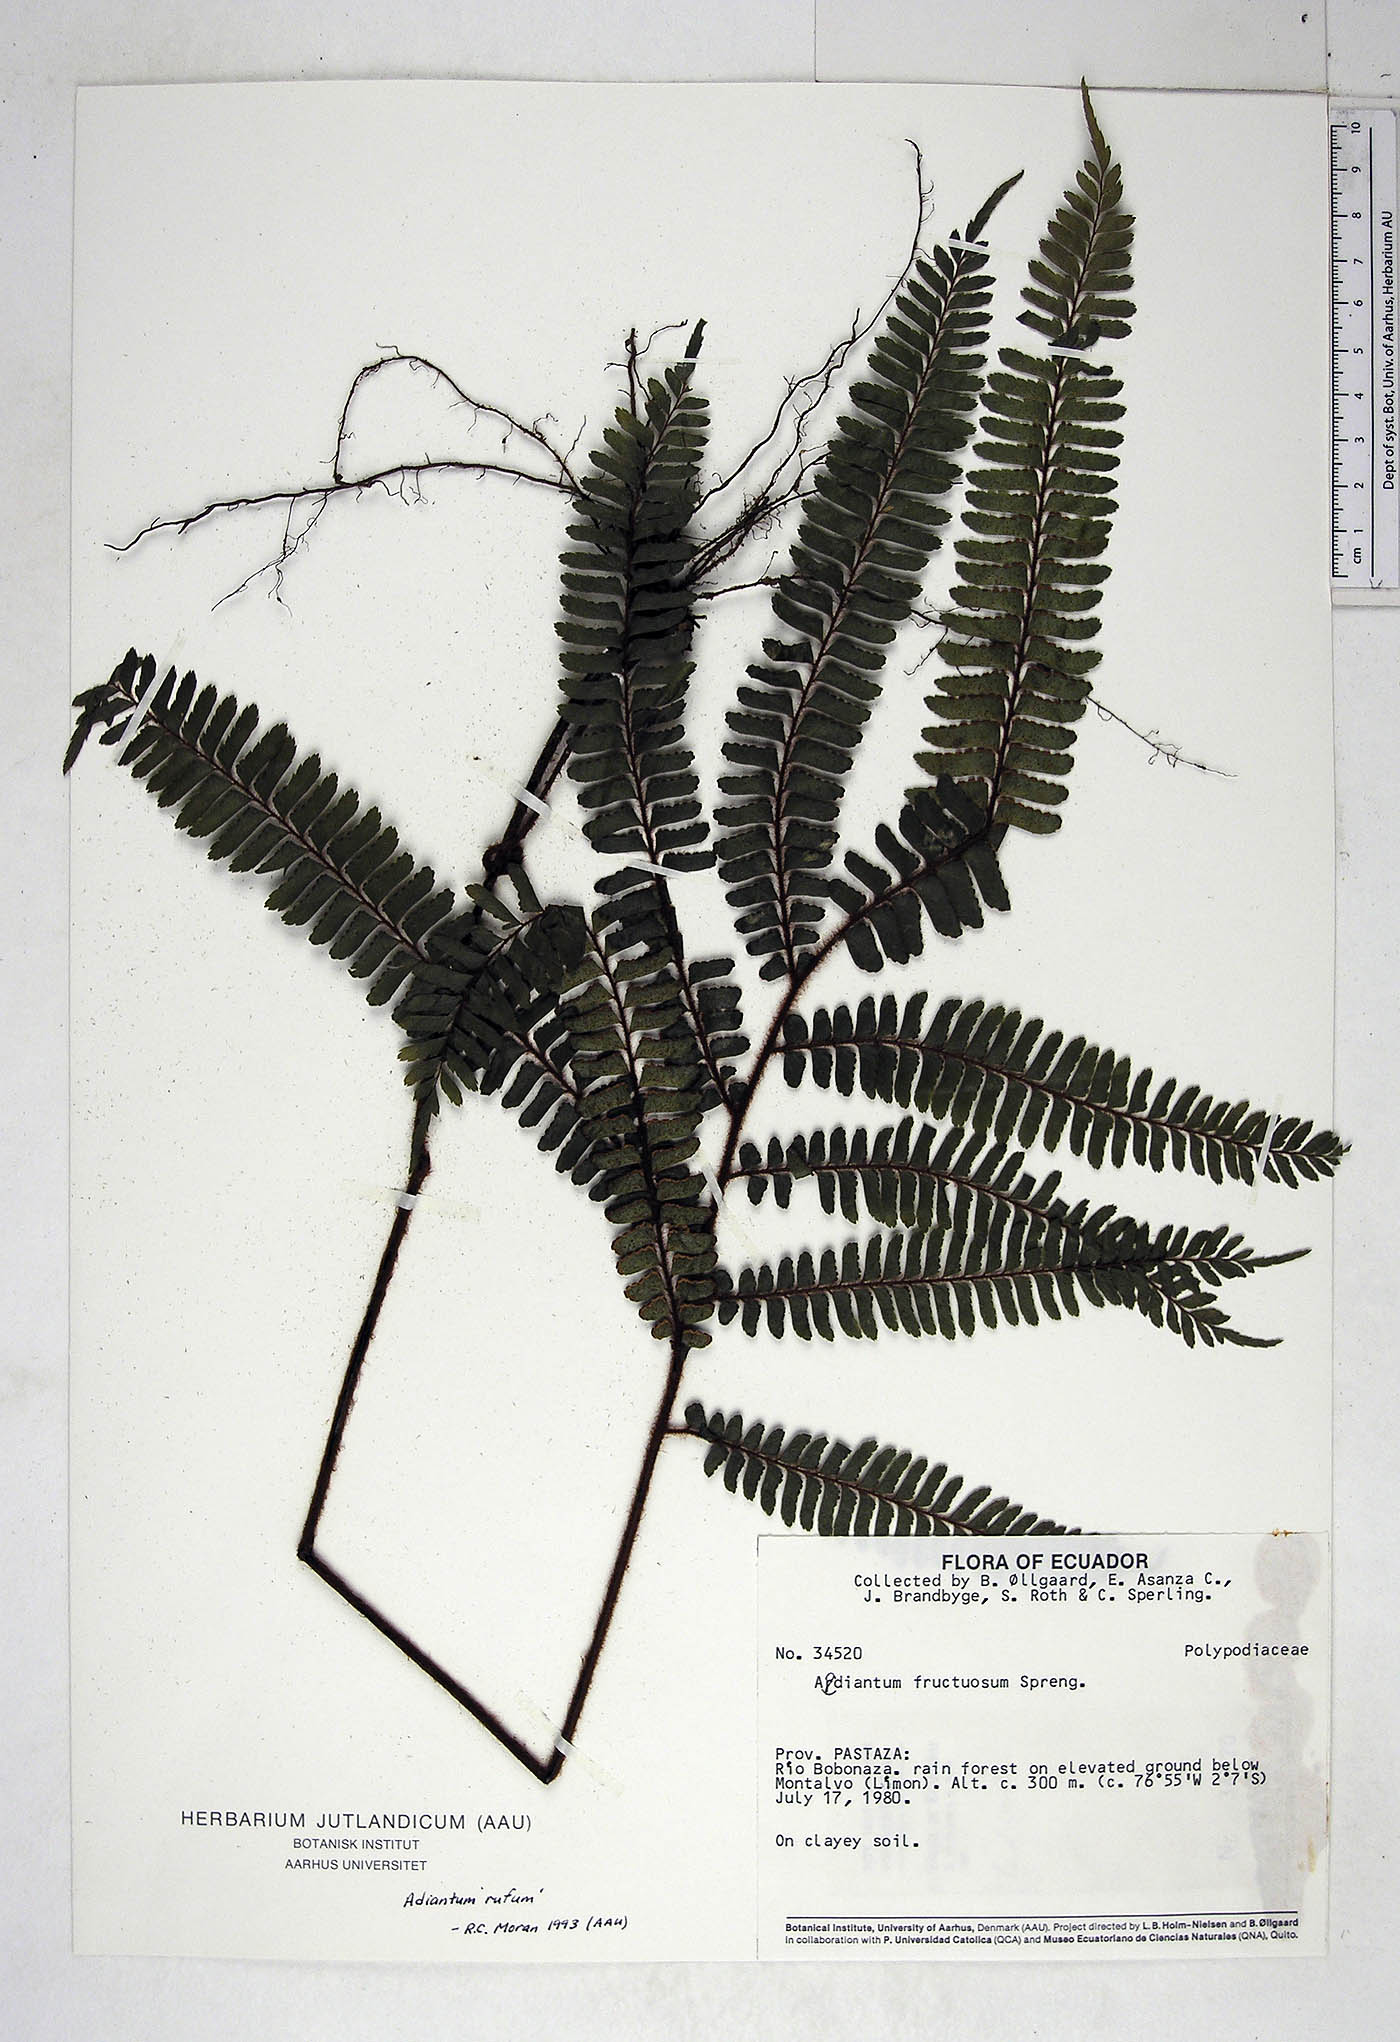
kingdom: Plantae
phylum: Tracheophyta
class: Polypodiopsida
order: Polypodiales
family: Pteridaceae
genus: Adiantum
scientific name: Adiantum tetraphyllum
